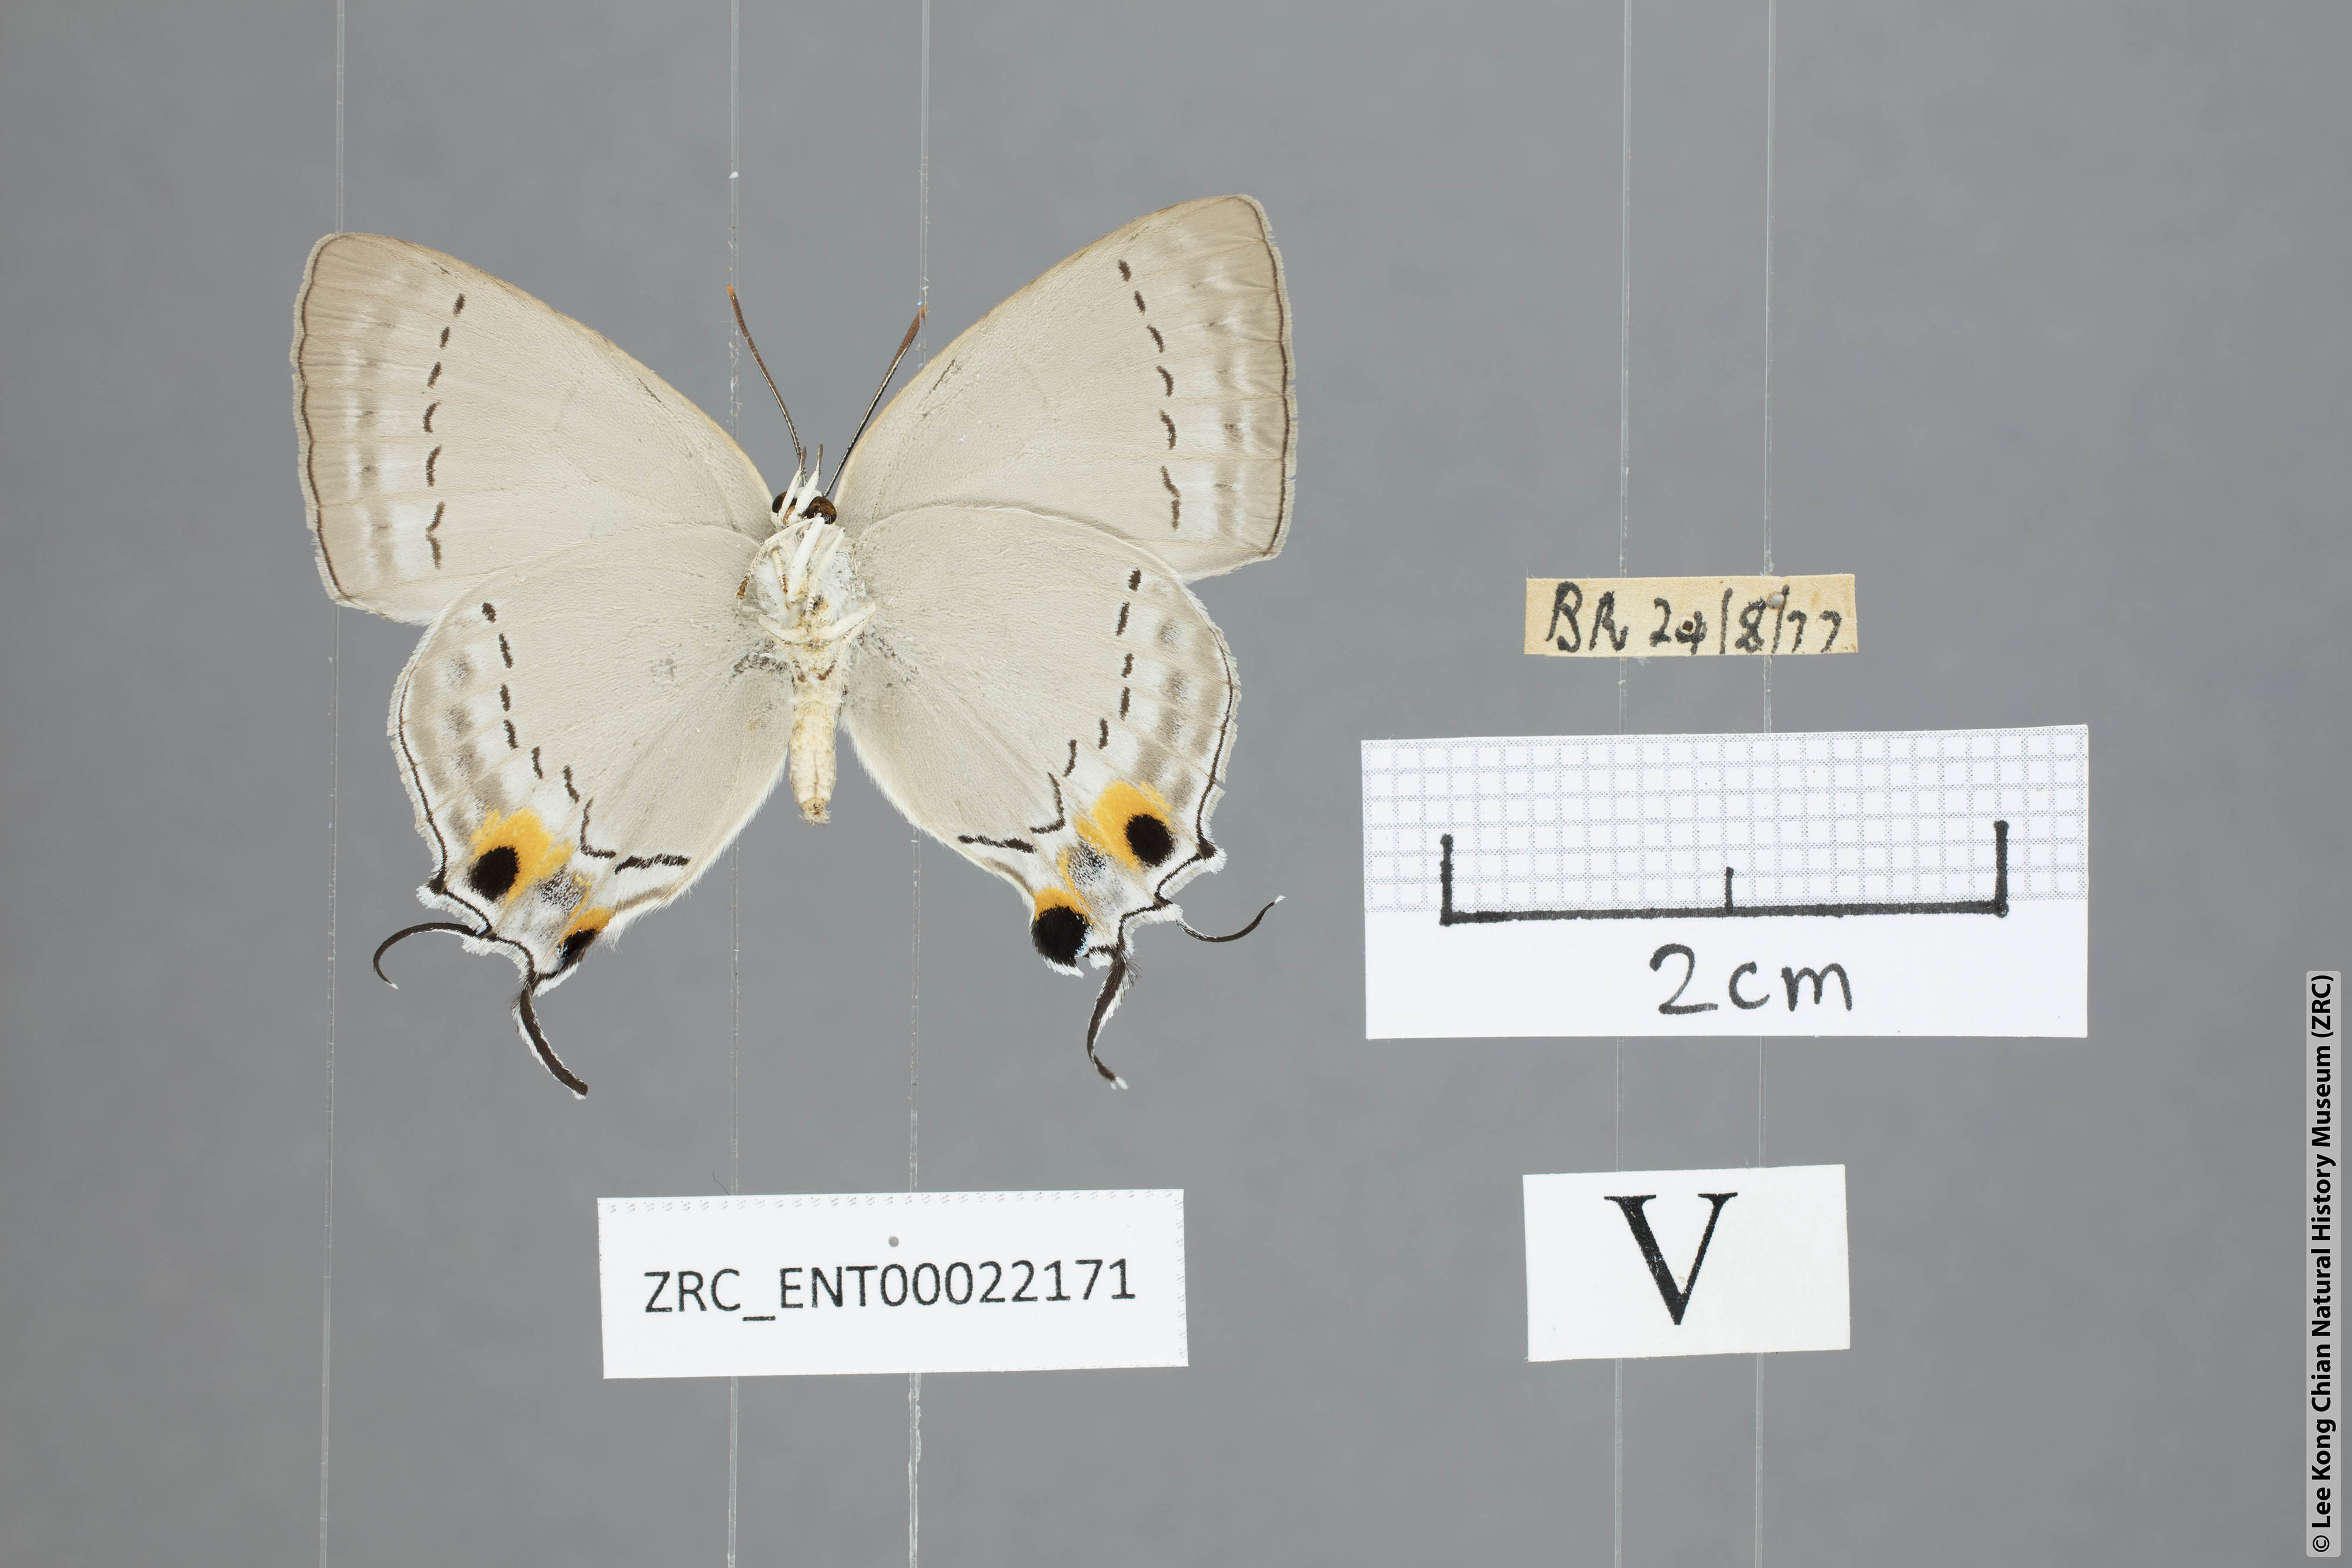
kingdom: Animalia
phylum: Arthropoda
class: Insecta
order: Lepidoptera
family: Lycaenidae
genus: Tajuria
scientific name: Tajuria cippus
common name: Peacock royal
